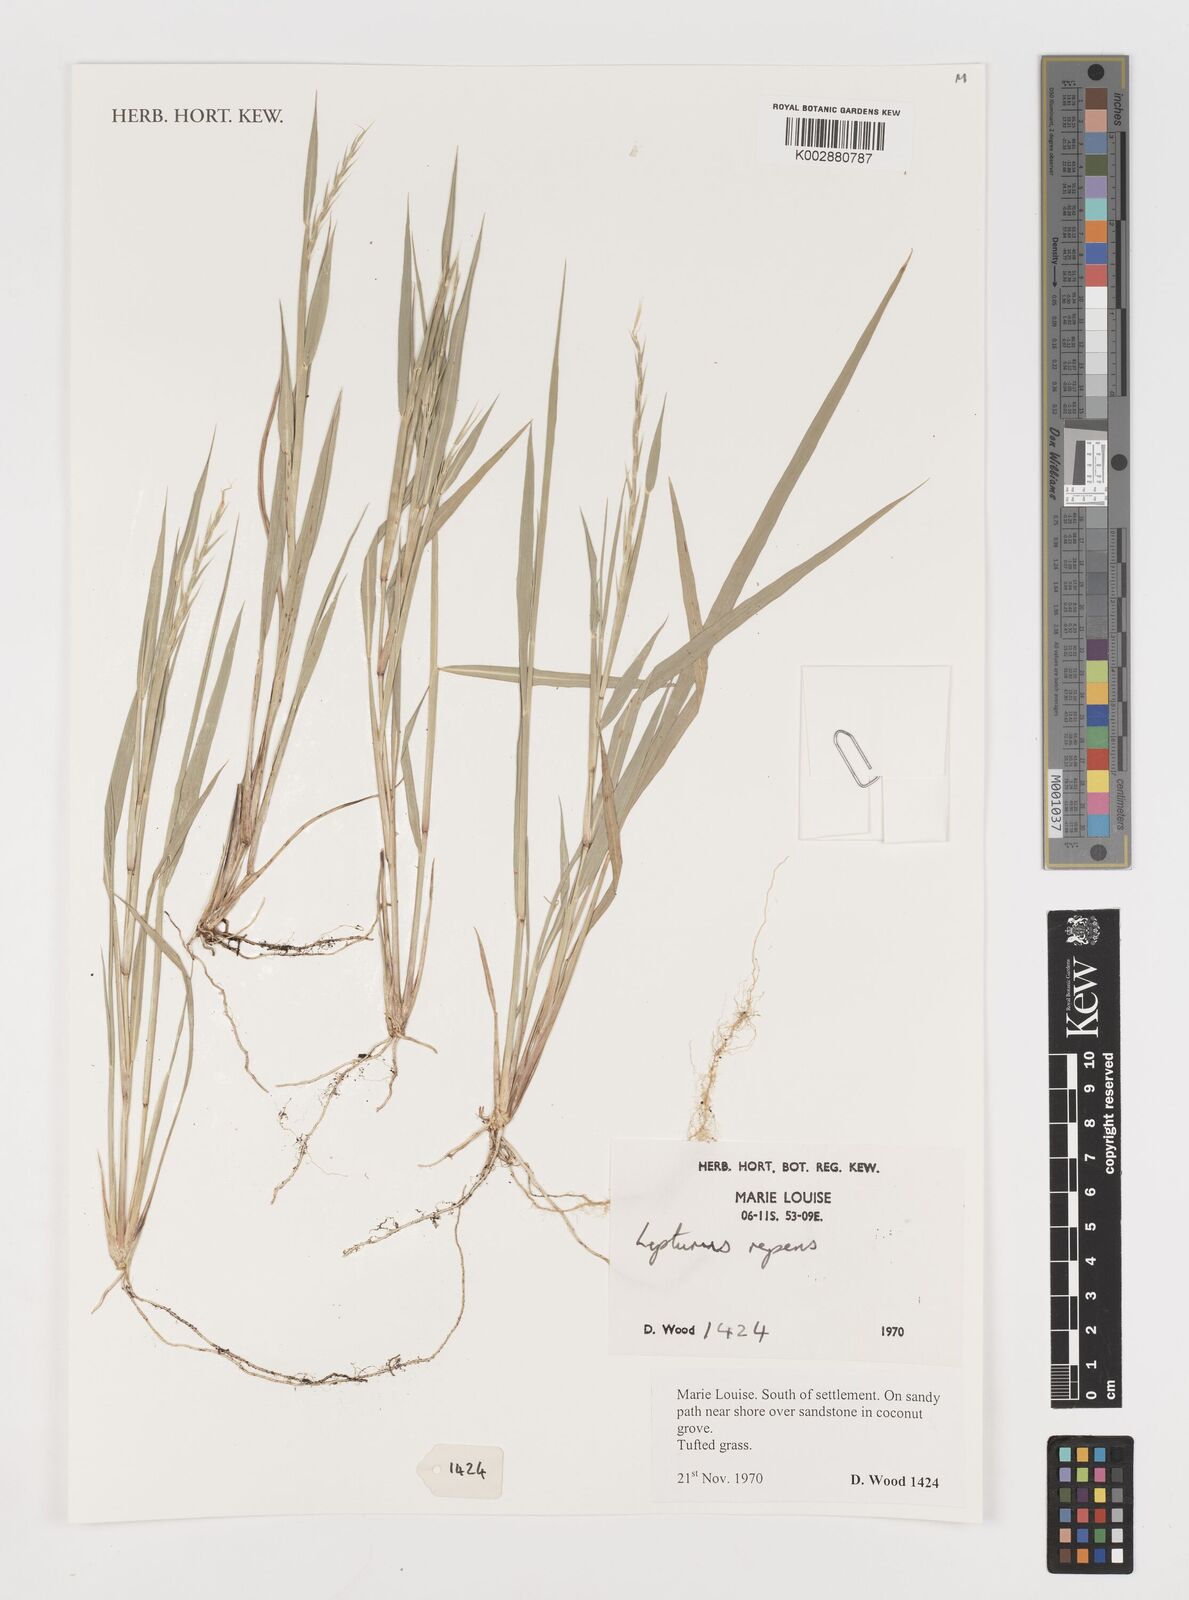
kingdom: Plantae
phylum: Tracheophyta
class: Liliopsida
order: Poales
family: Poaceae
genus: Lepturus
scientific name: Lepturus
